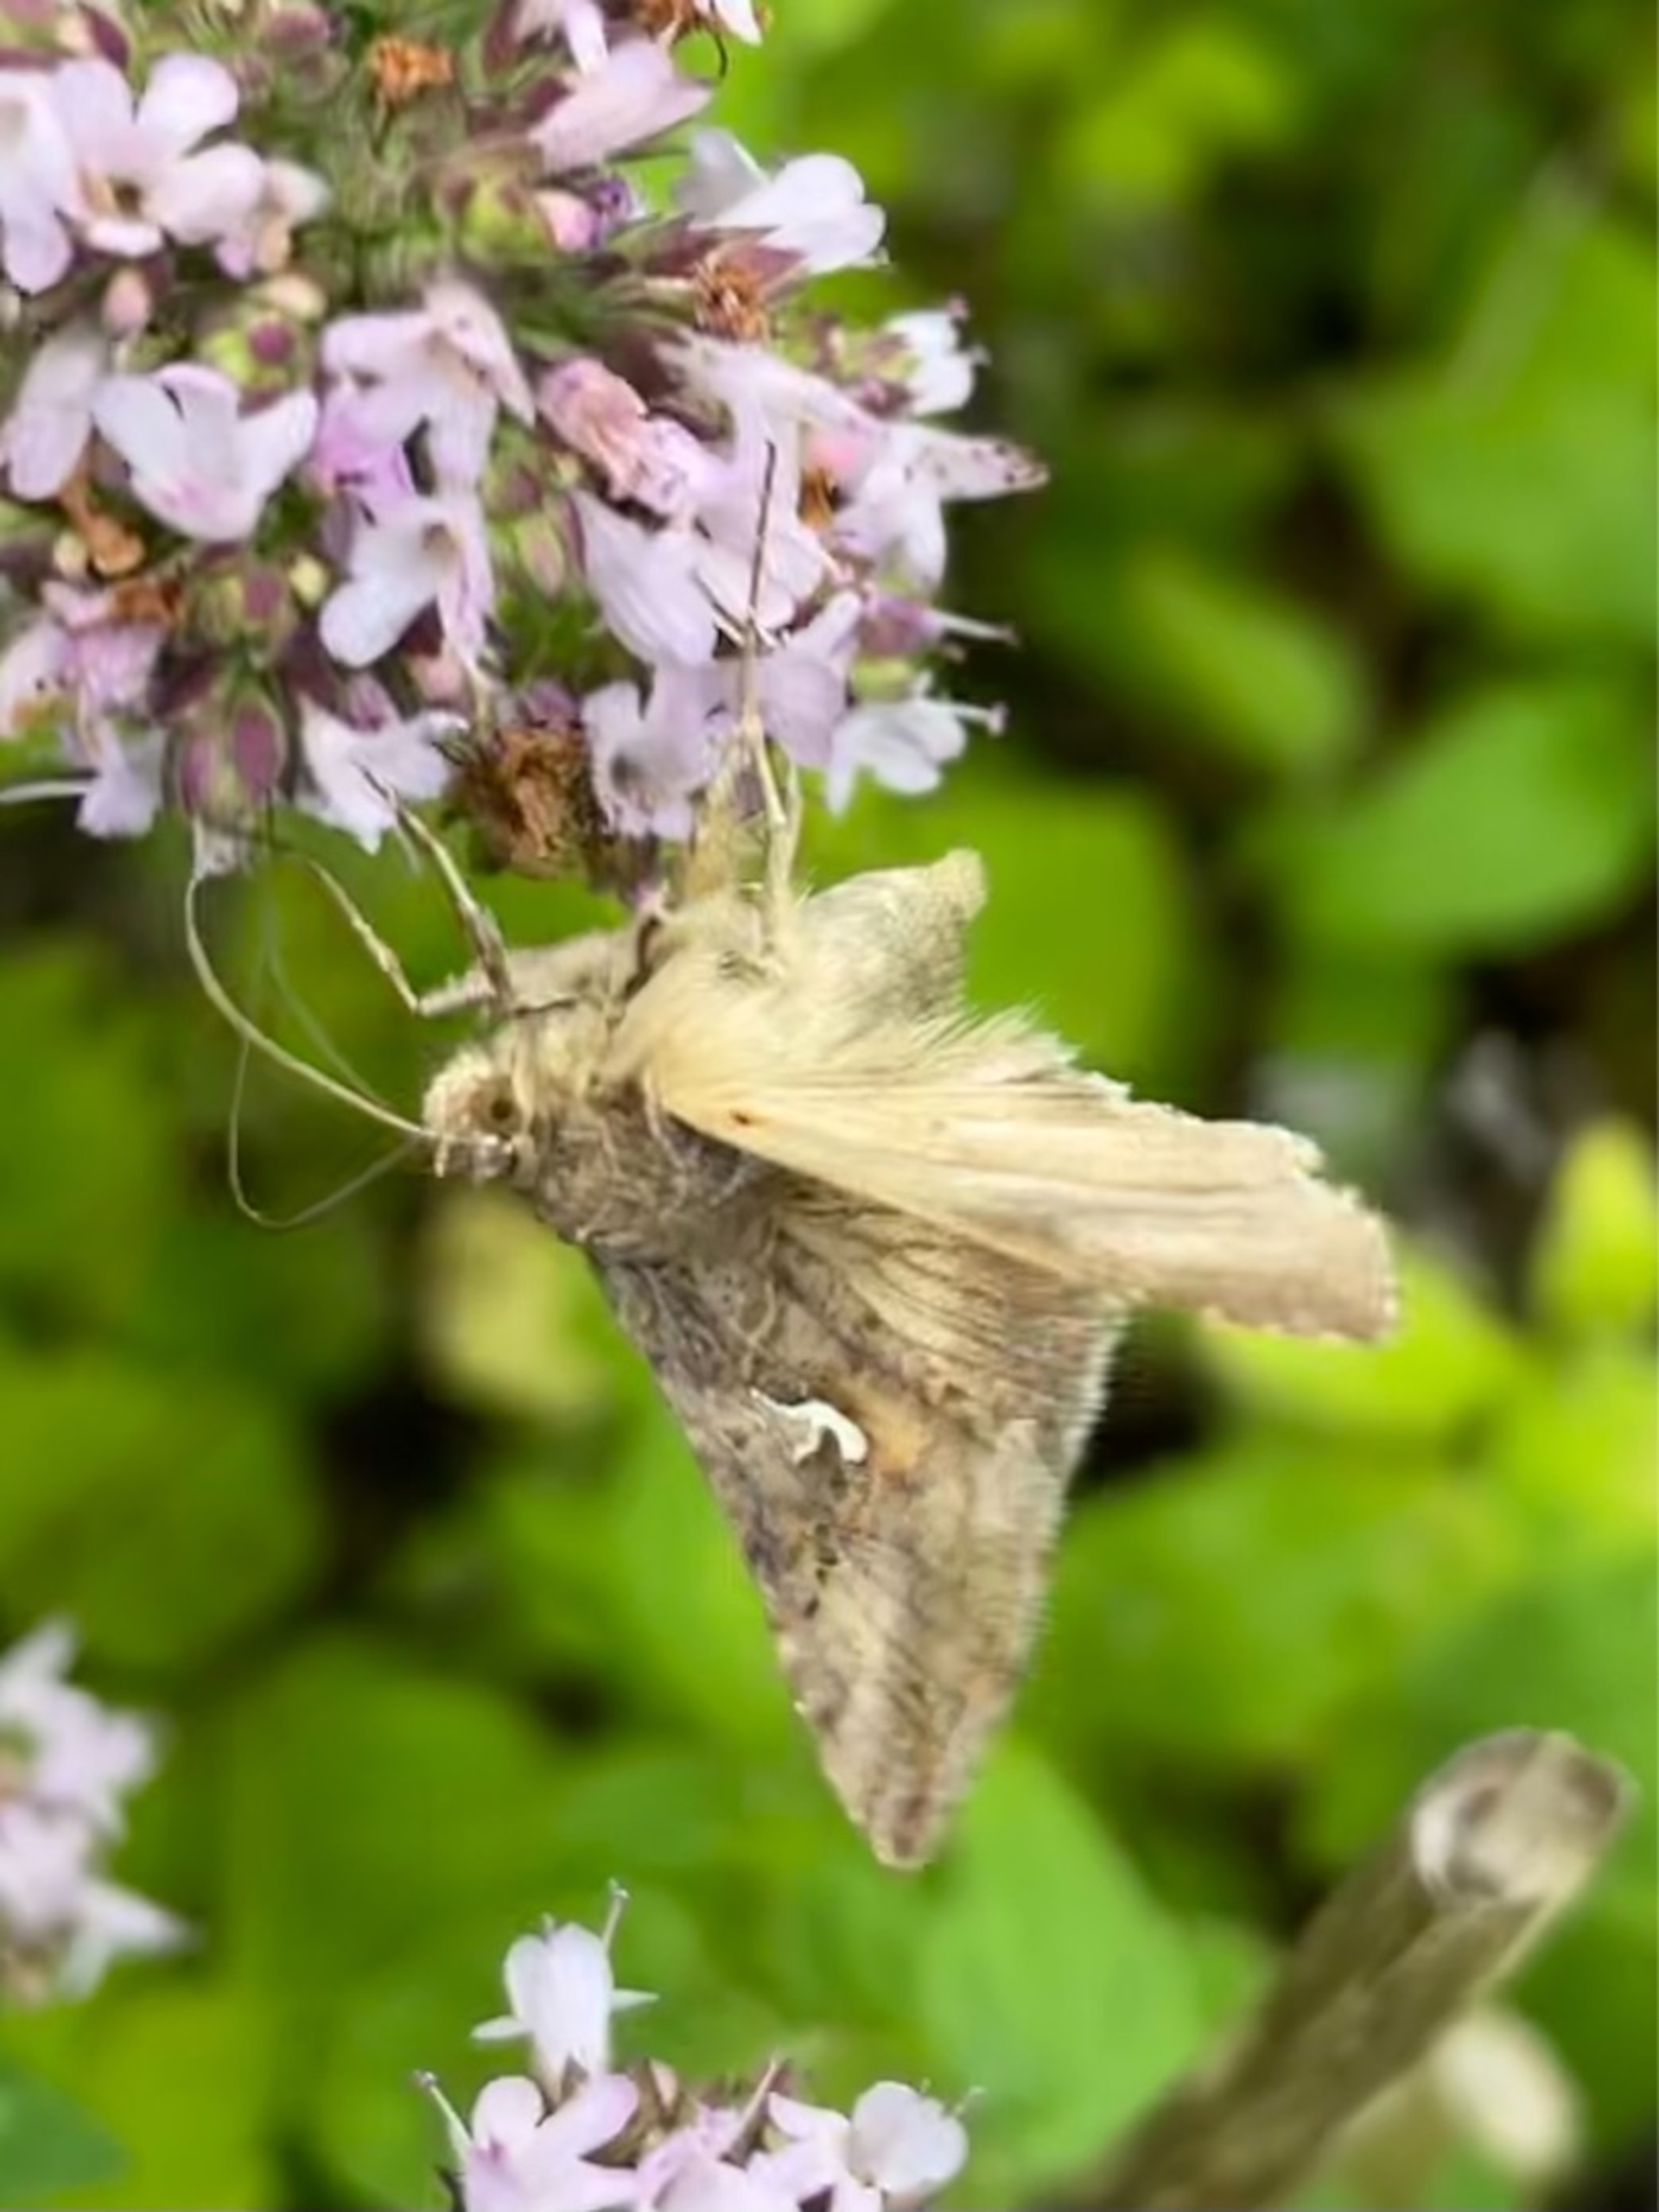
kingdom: Animalia
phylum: Arthropoda
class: Insecta
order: Lepidoptera
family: Noctuidae
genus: Autographa
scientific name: Autographa gamma
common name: Gammaugle
